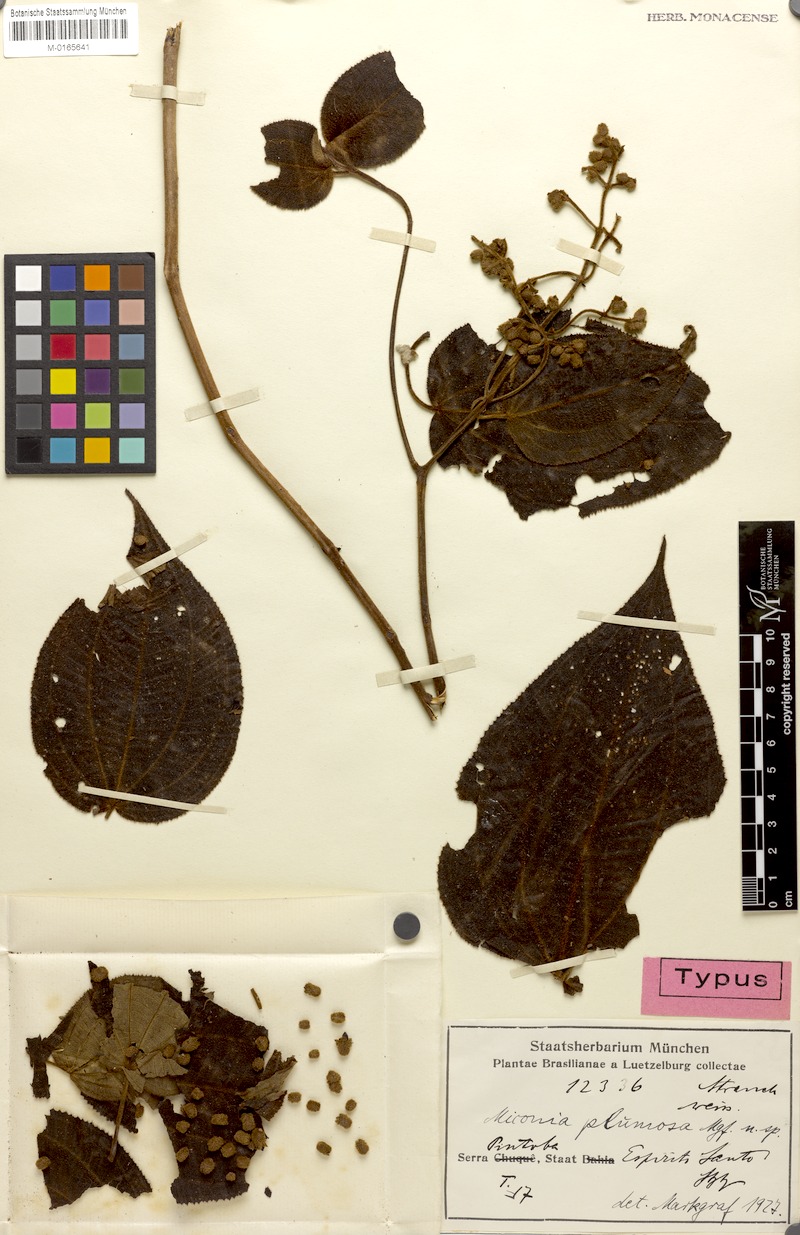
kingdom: Plantae
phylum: Tracheophyta
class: Magnoliopsida
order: Myrtales
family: Melastomataceae
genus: Miconia
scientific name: Miconia labiakiana
